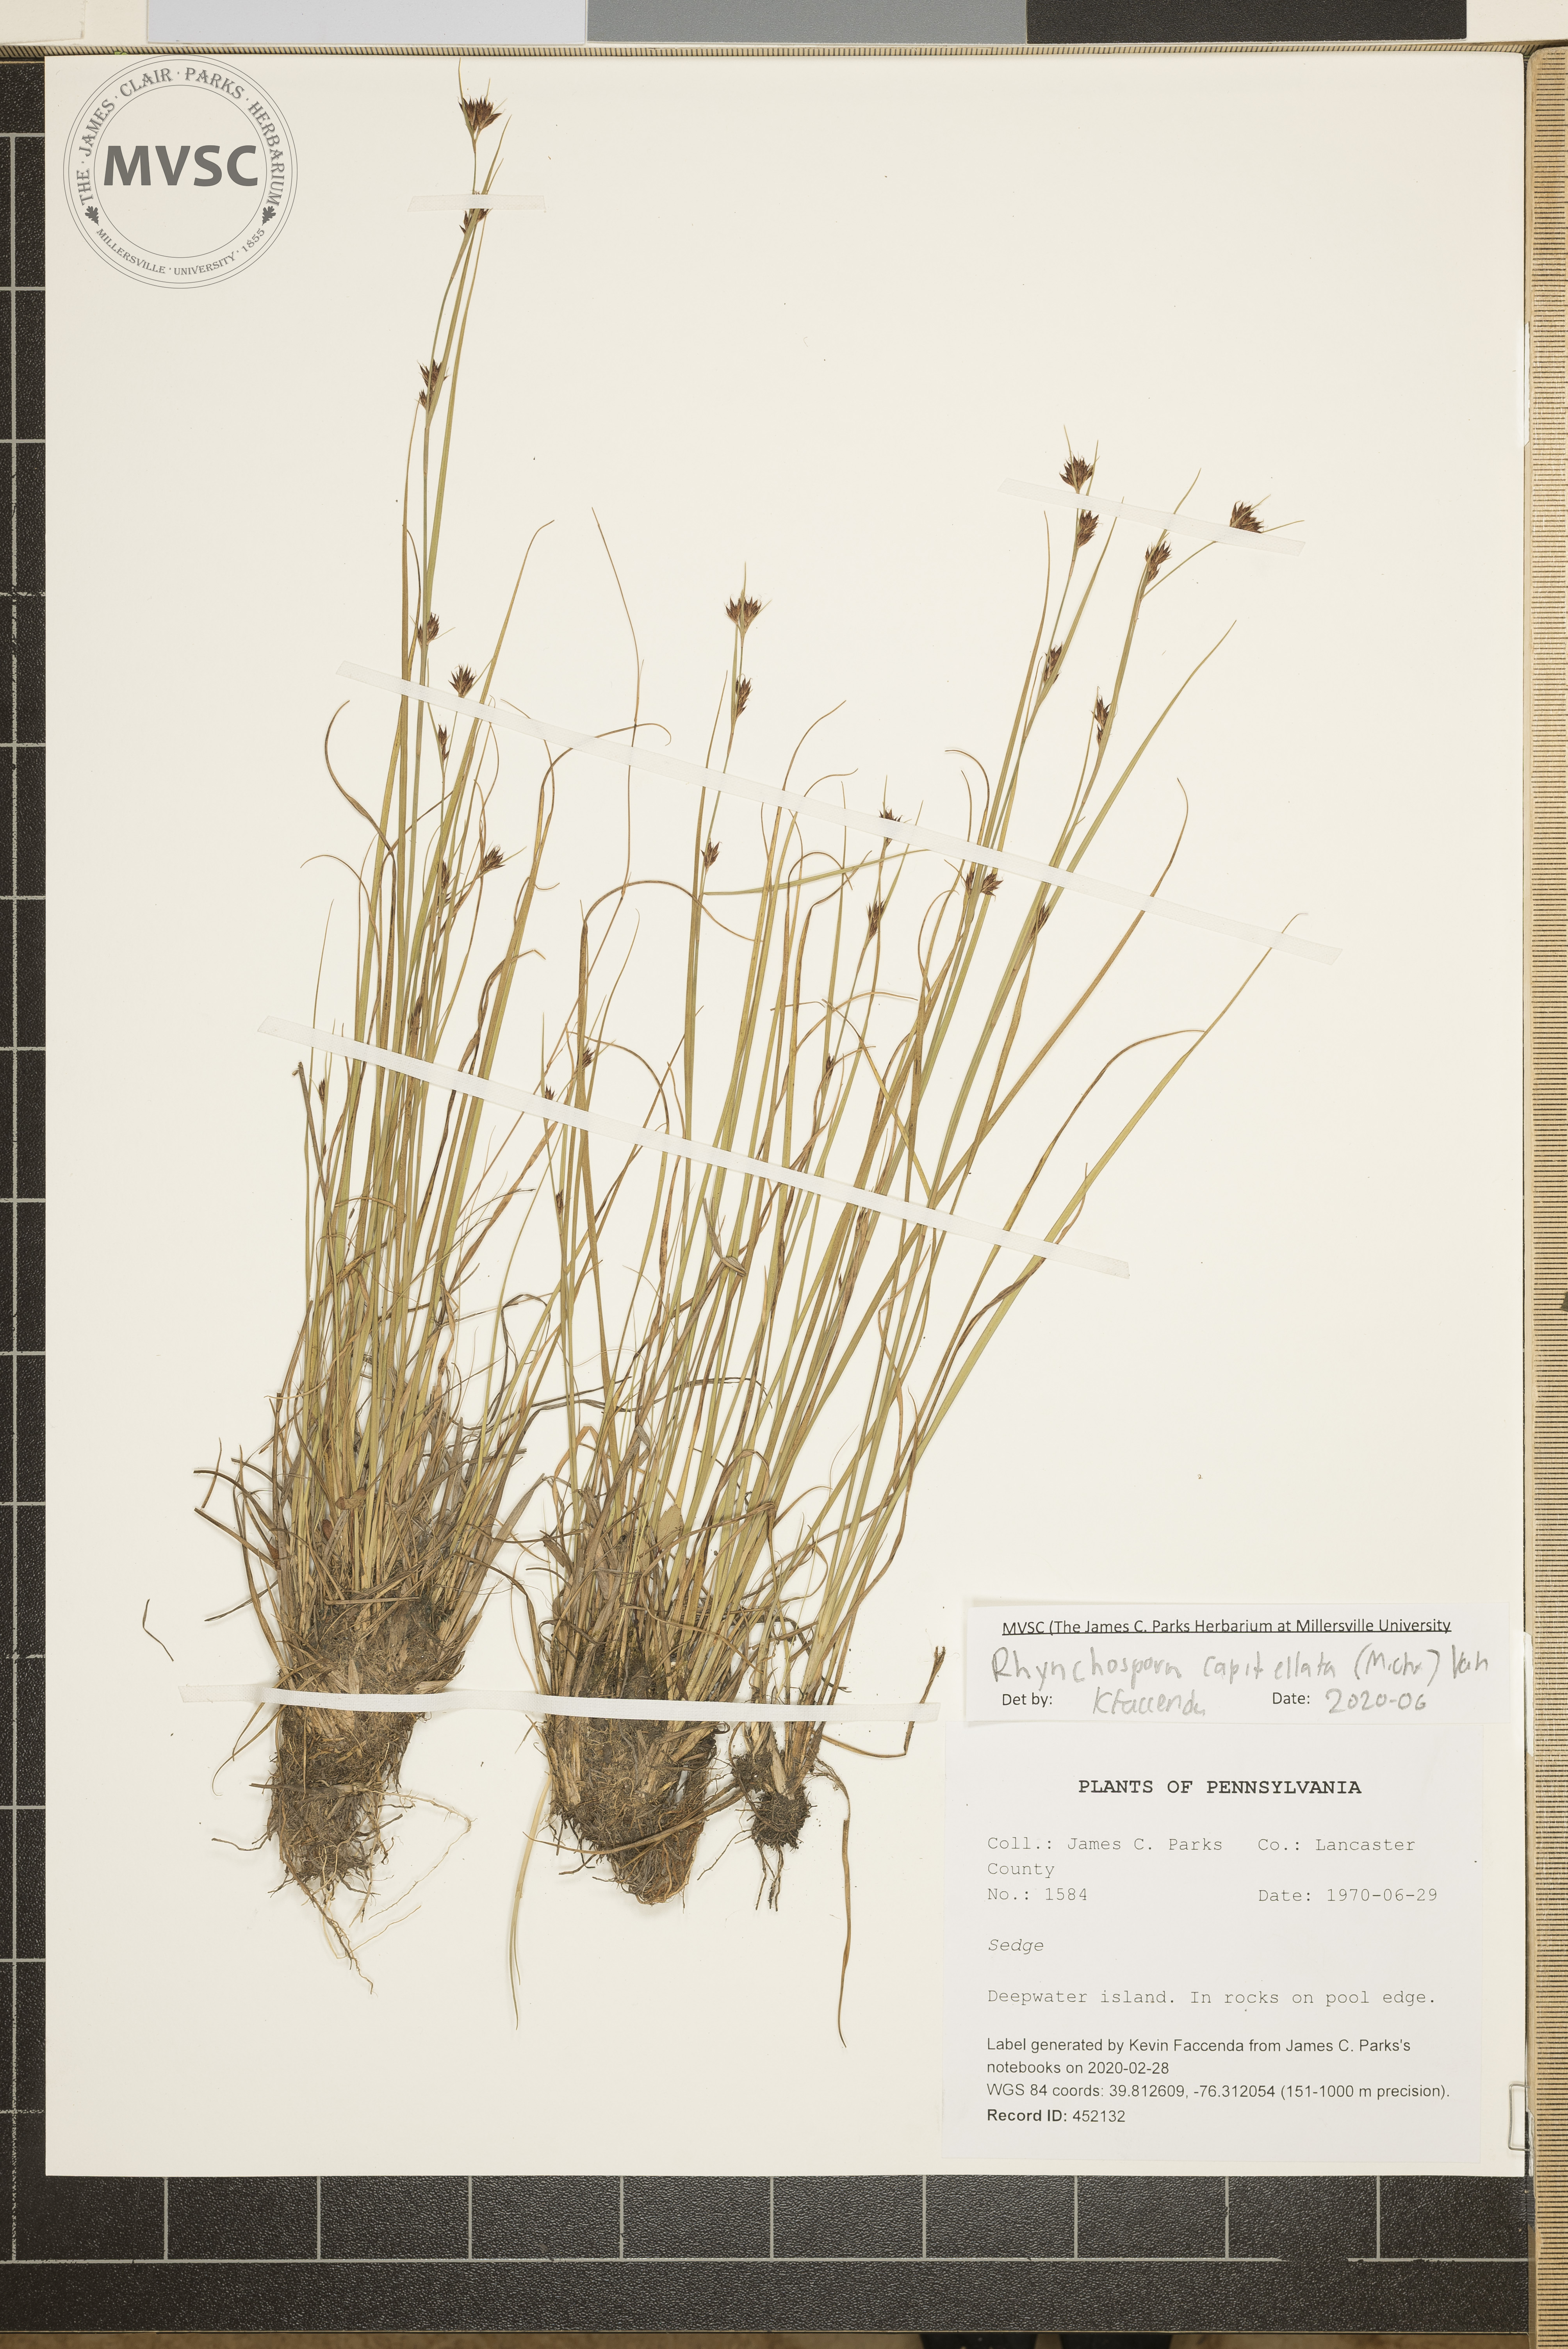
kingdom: Plantae
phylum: Tracheophyta
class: Liliopsida
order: Poales
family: Cyperaceae
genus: Rhynchospora
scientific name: Rhynchospora capitellata
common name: Brownish beaksedge
